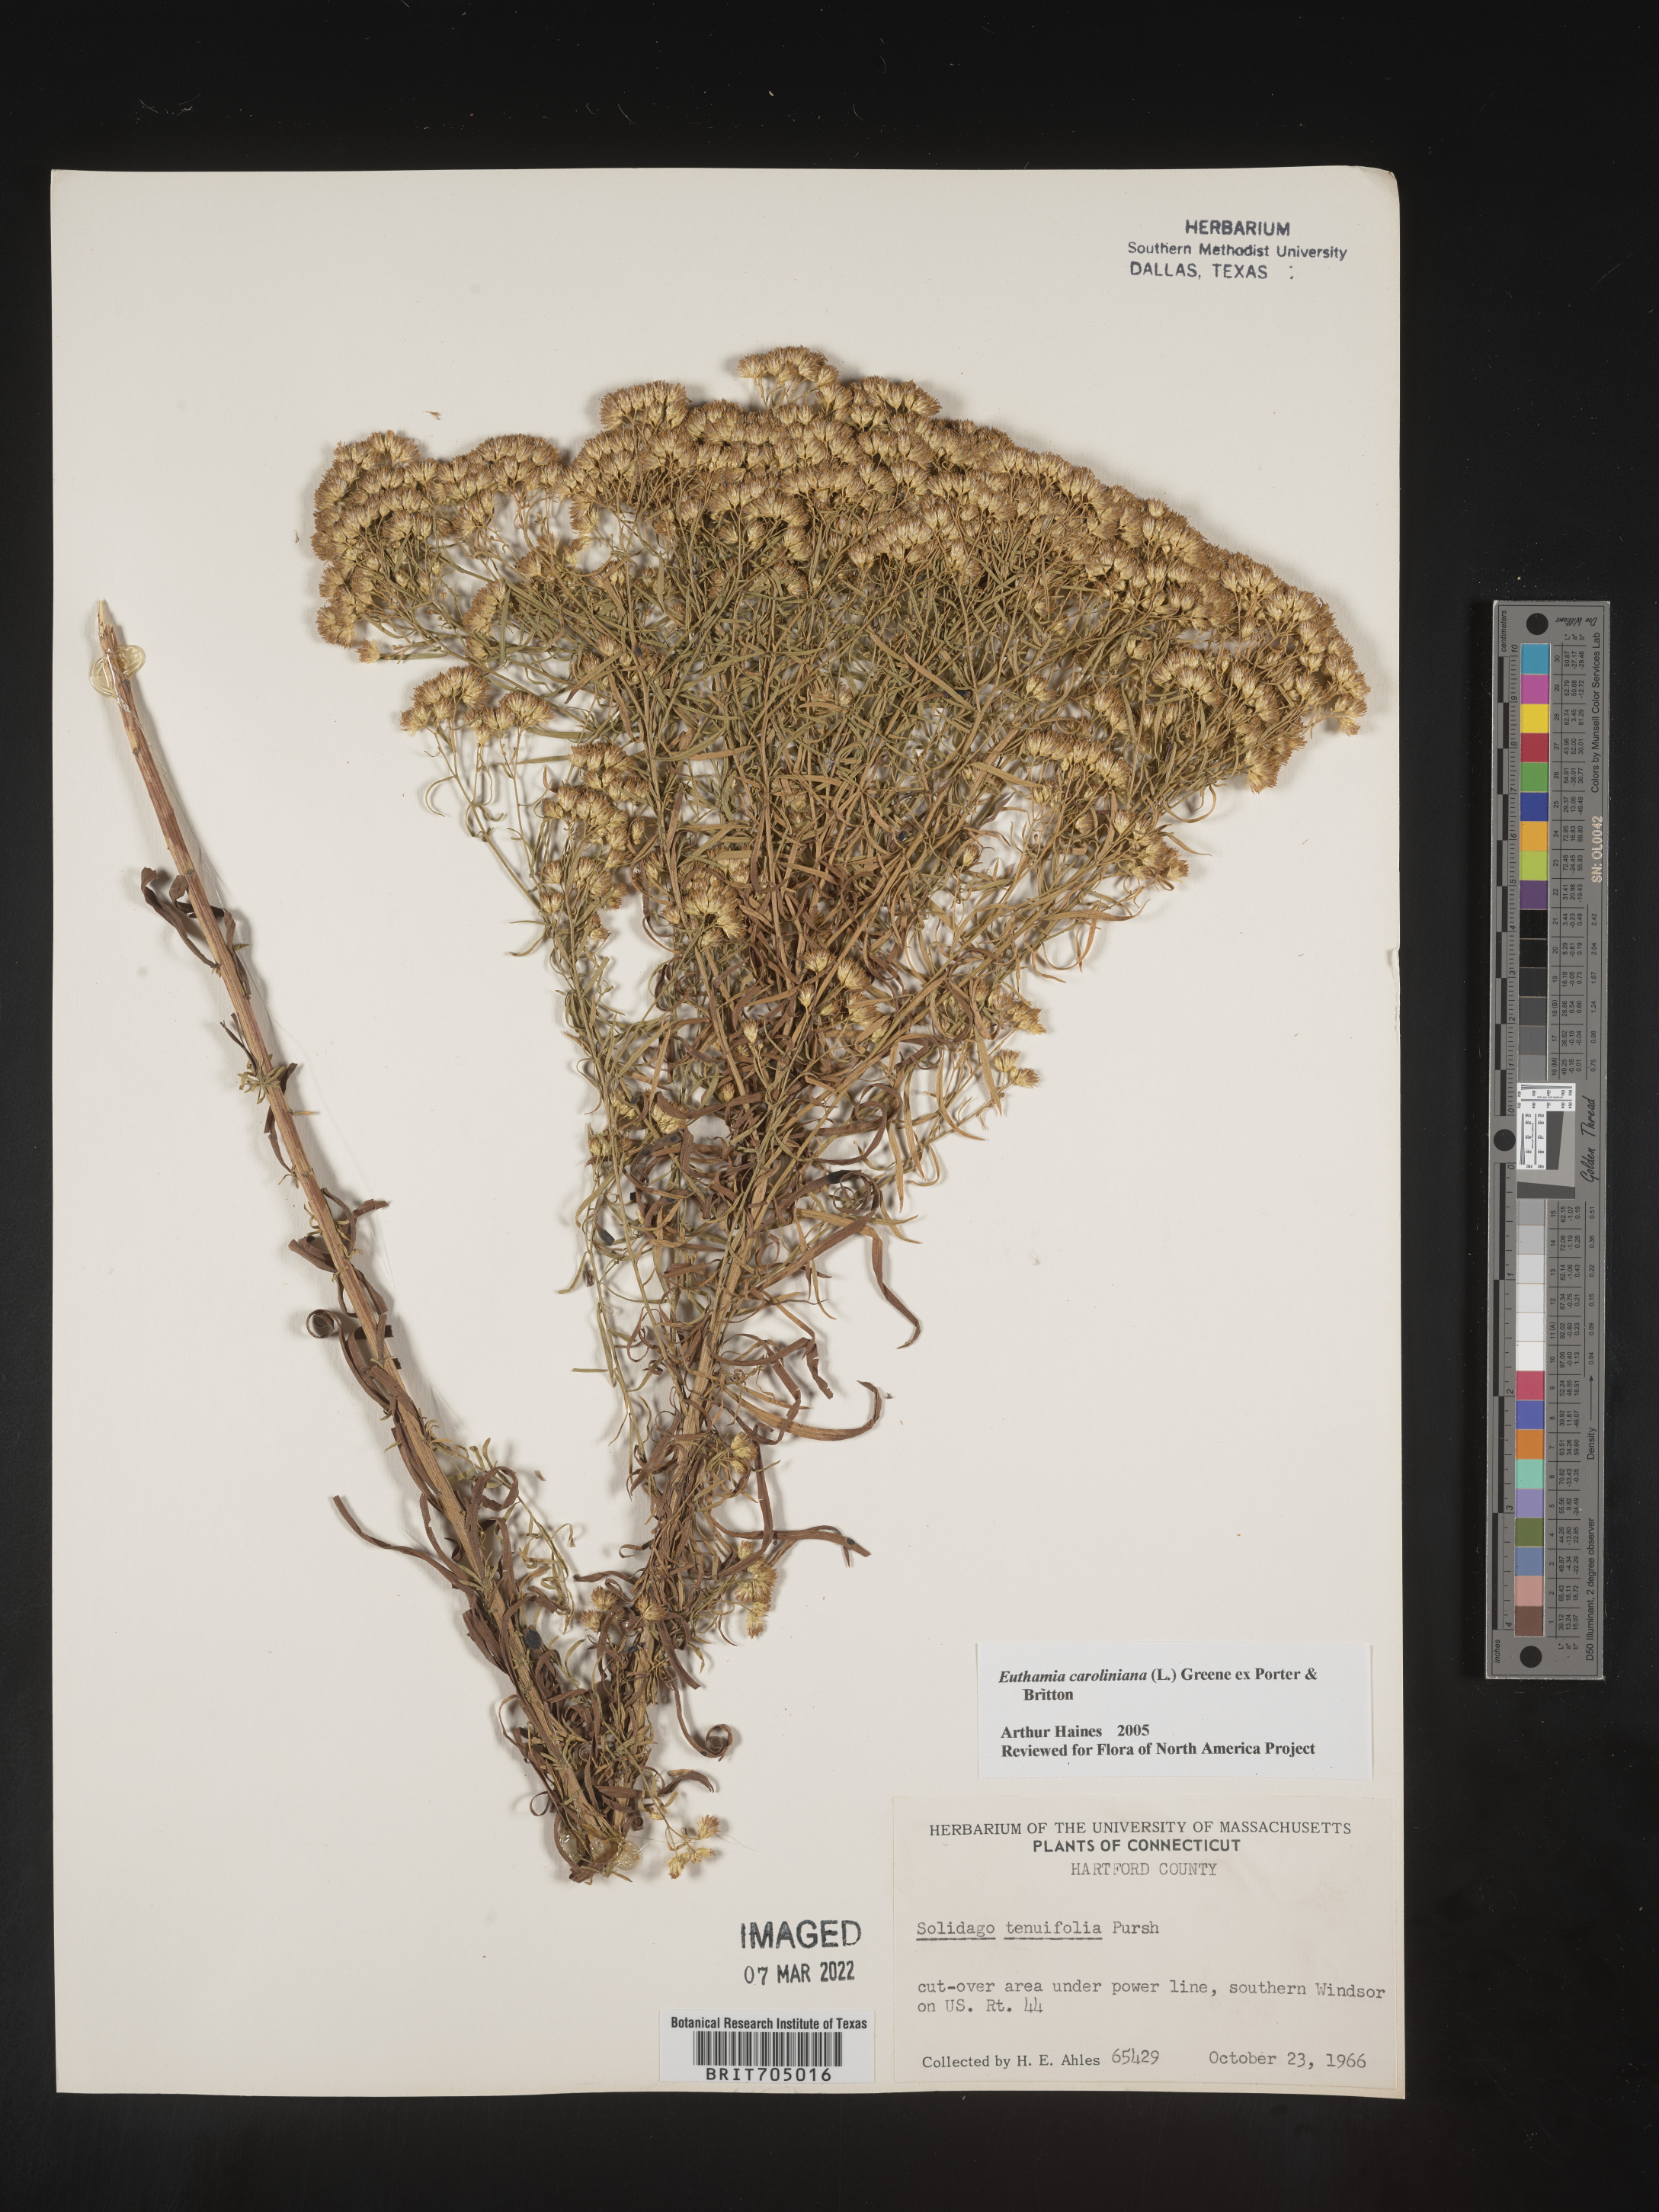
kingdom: Plantae
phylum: Tracheophyta
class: Magnoliopsida
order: Asterales
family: Asteraceae
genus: Euthamia
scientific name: Euthamia caroliniana
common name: Coastal plain goldentop
